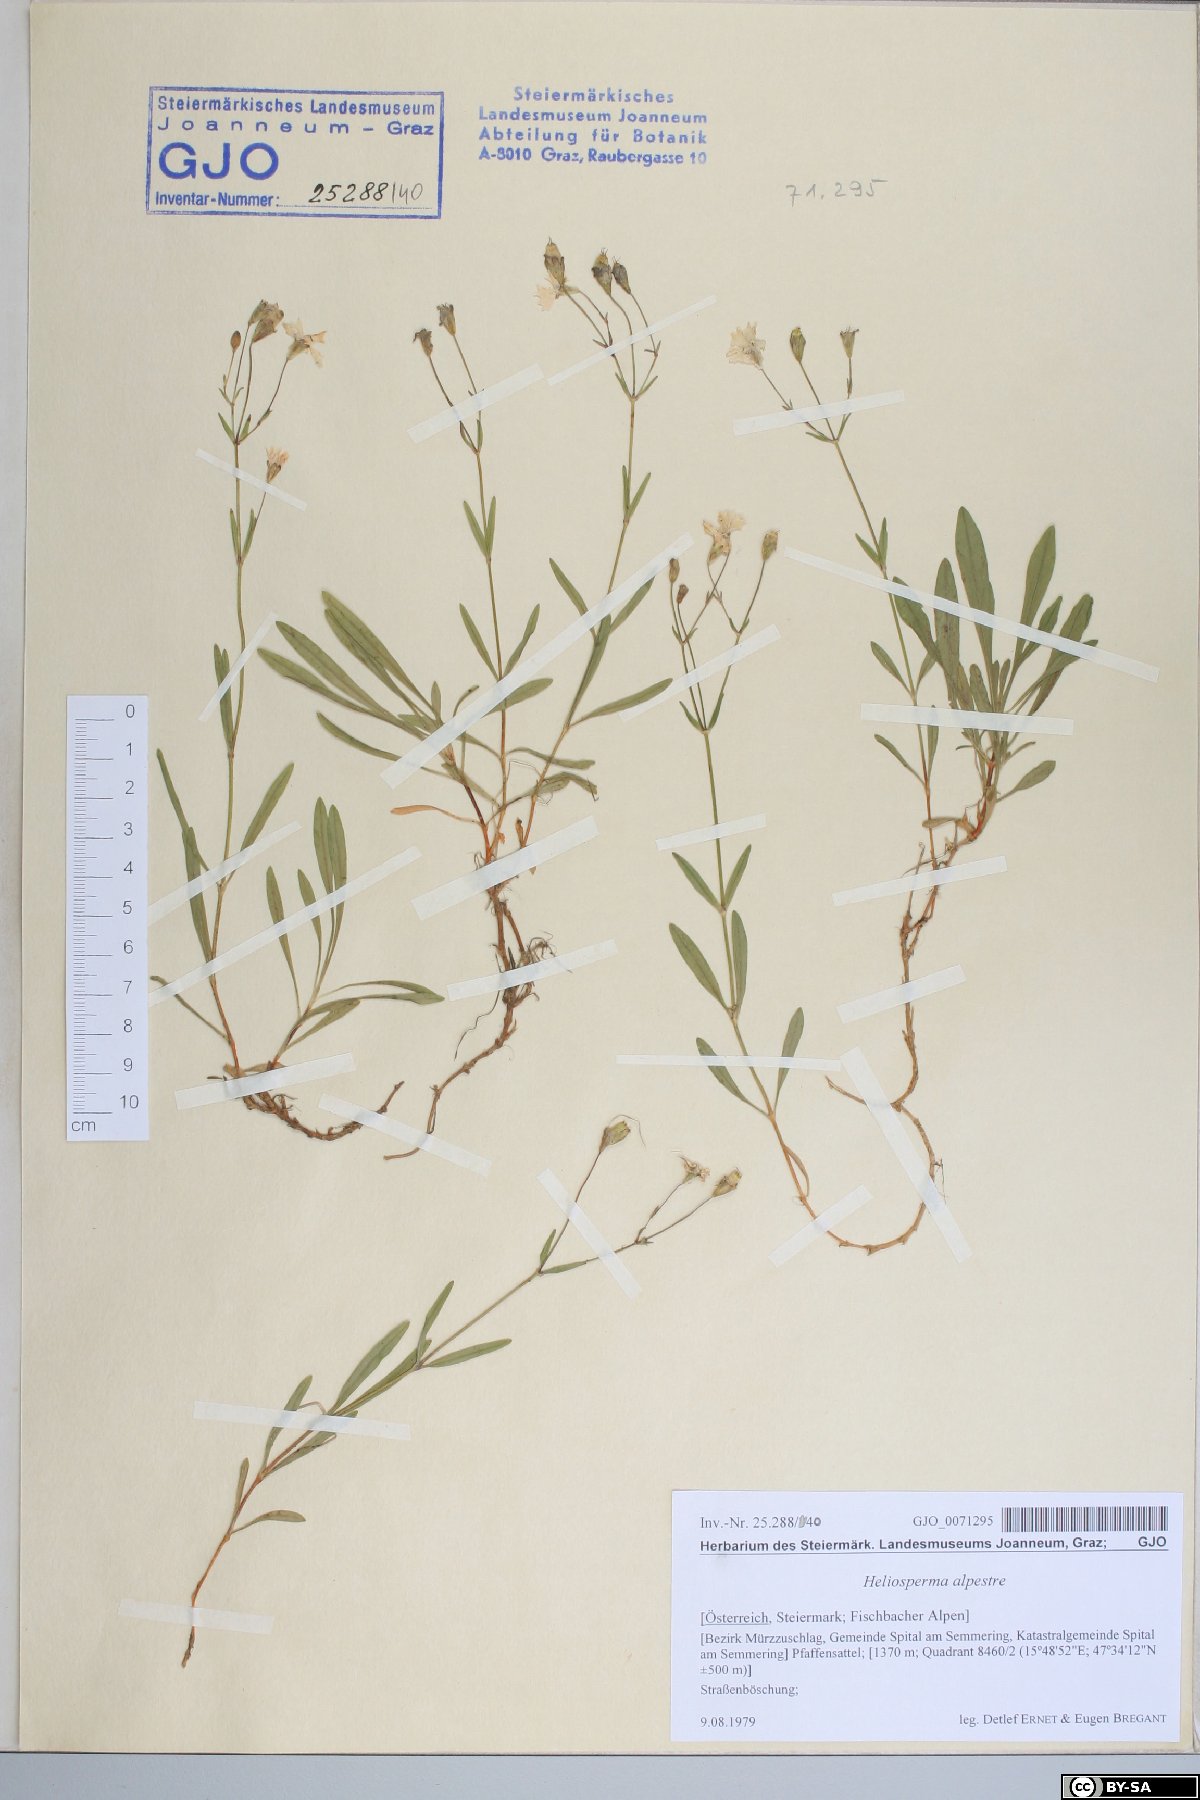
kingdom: Plantae
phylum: Tracheophyta
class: Magnoliopsida
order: Caryophyllales
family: Caryophyllaceae
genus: Heliosperma
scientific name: Heliosperma alpestre
